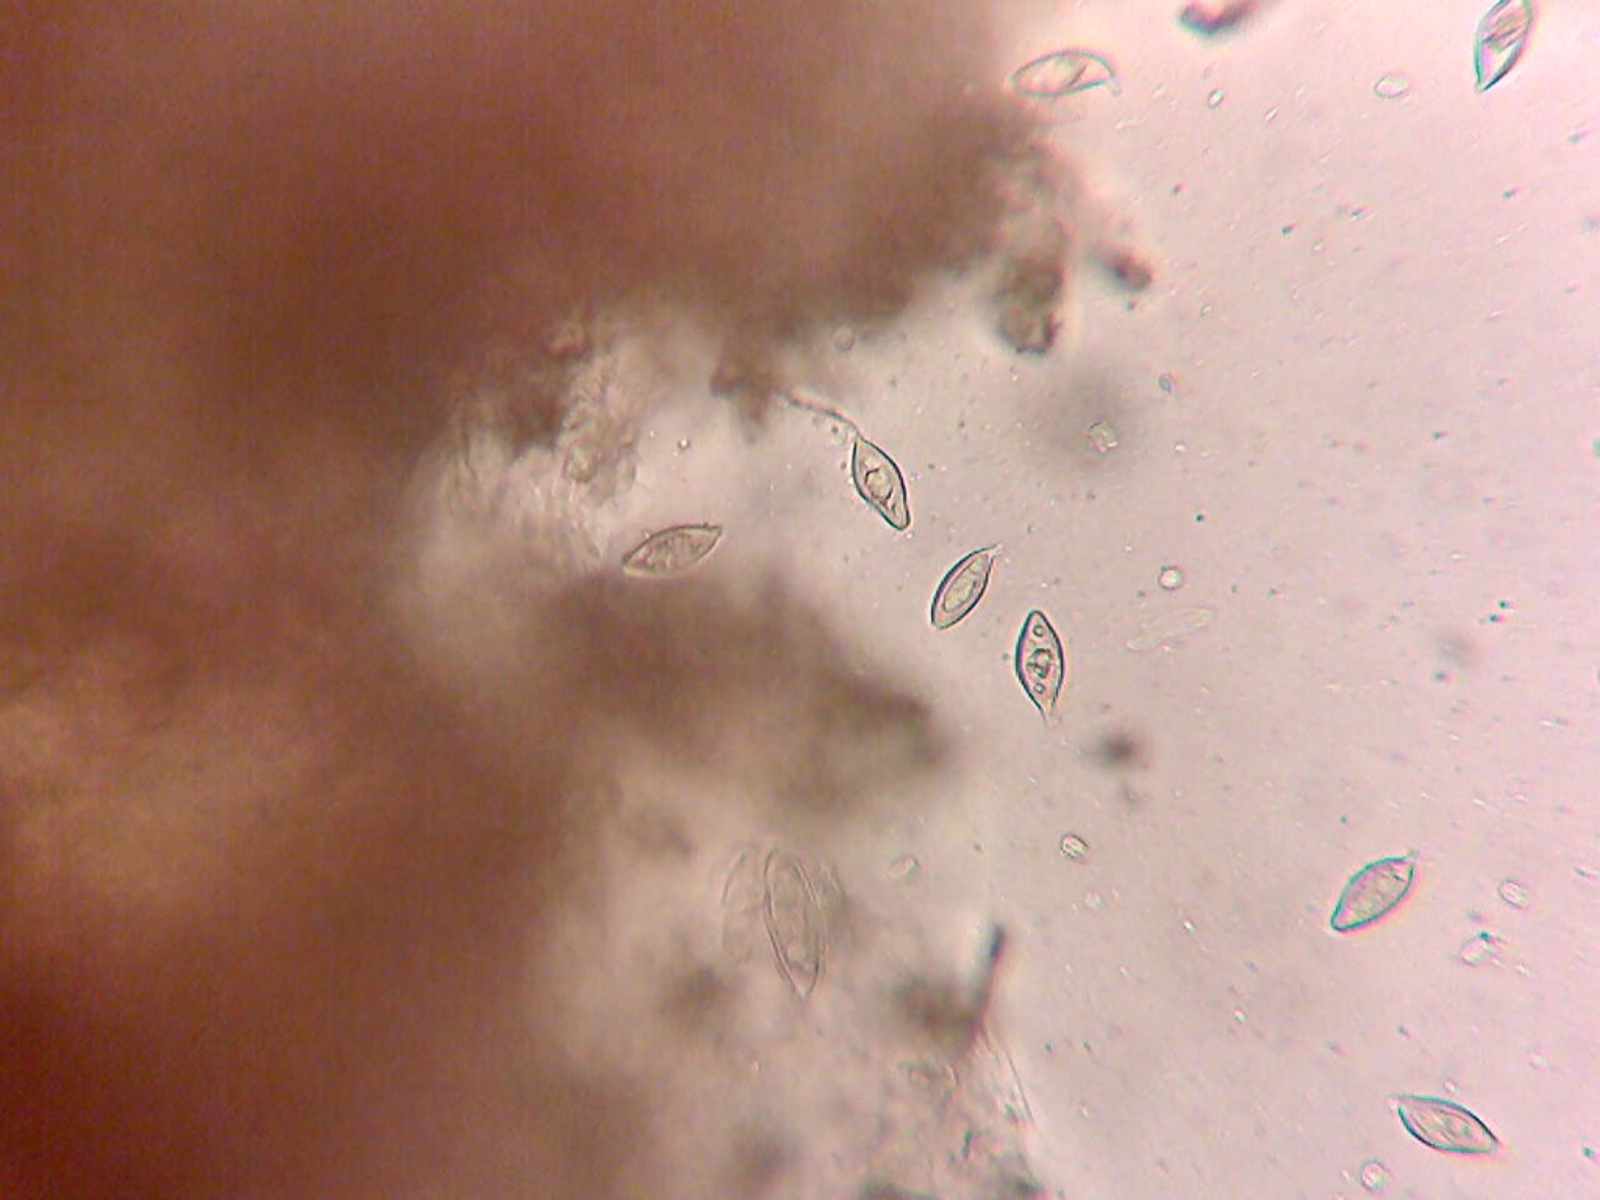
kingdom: Fungi
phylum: Basidiomycota
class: Agaricomycetes
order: Agaricales
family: Hymenogastraceae
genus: Hymenogaster
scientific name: Hymenogaster luteus
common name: gulkødet knoldtrøffel
